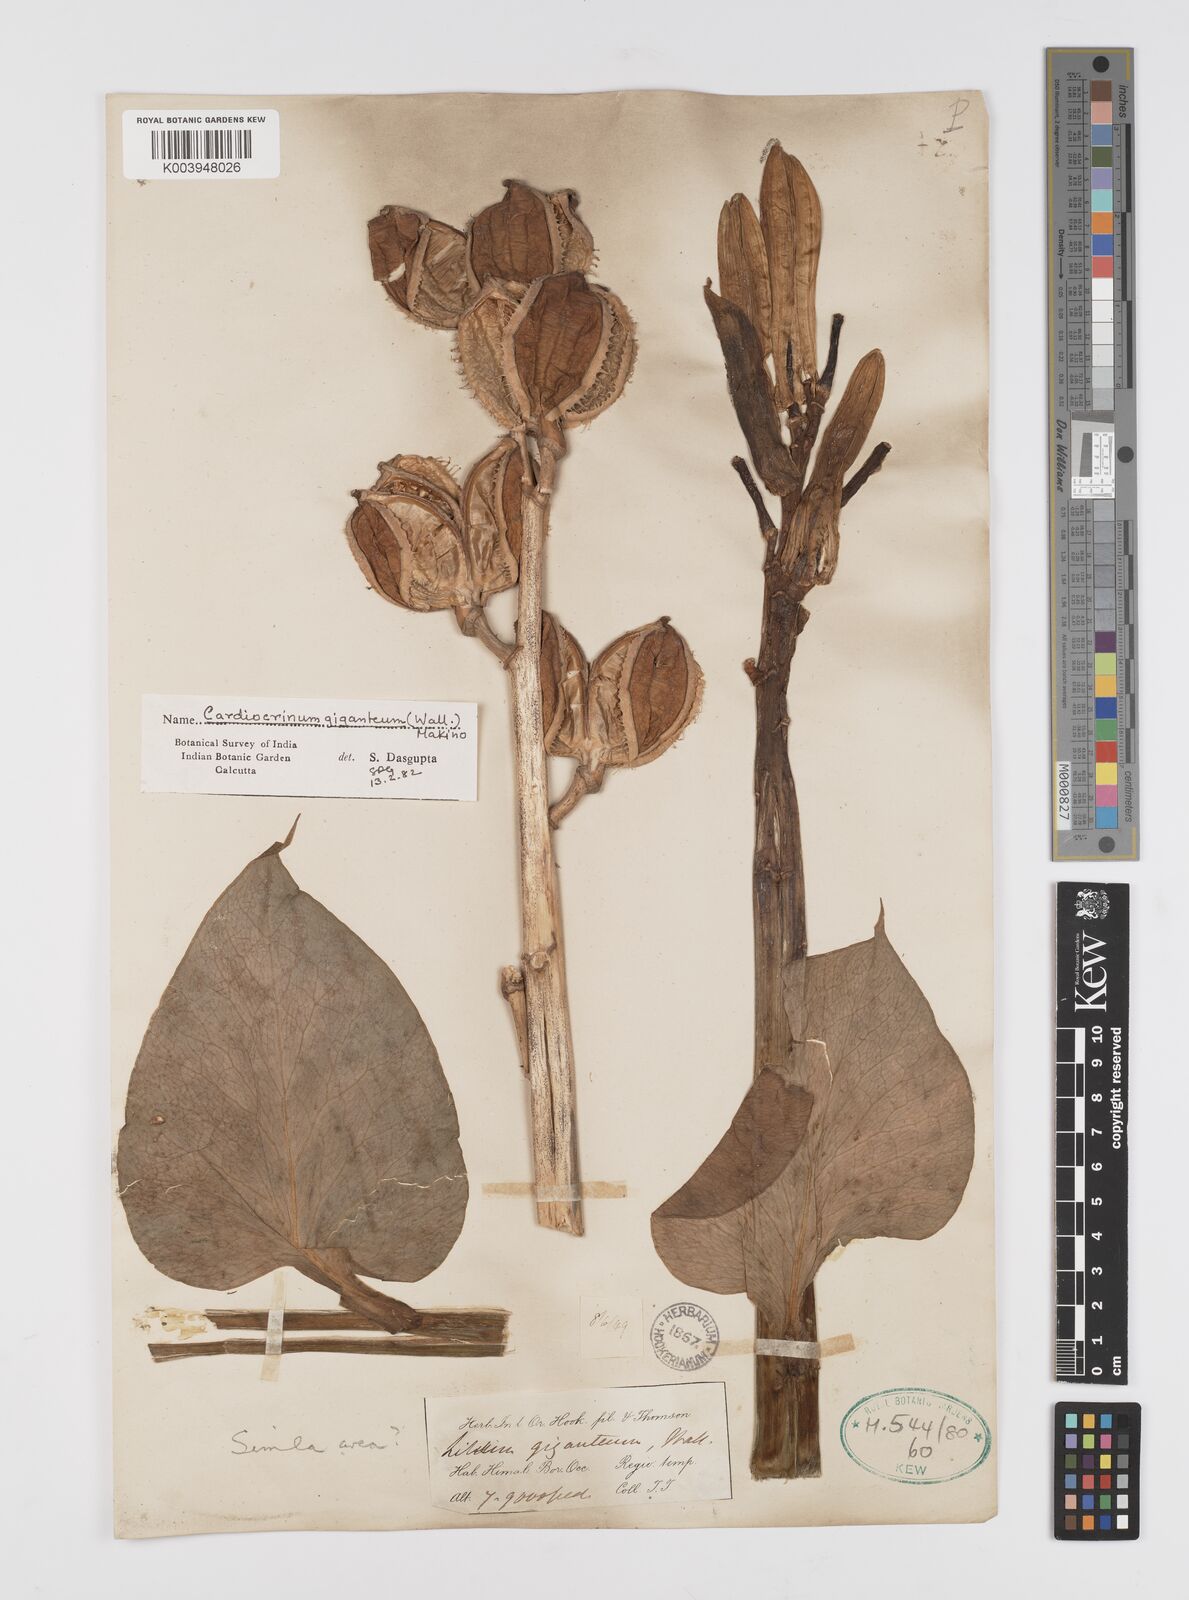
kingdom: Plantae
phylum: Tracheophyta
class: Liliopsida
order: Liliales
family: Liliaceae
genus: Cardiocrinum
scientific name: Cardiocrinum giganteum
